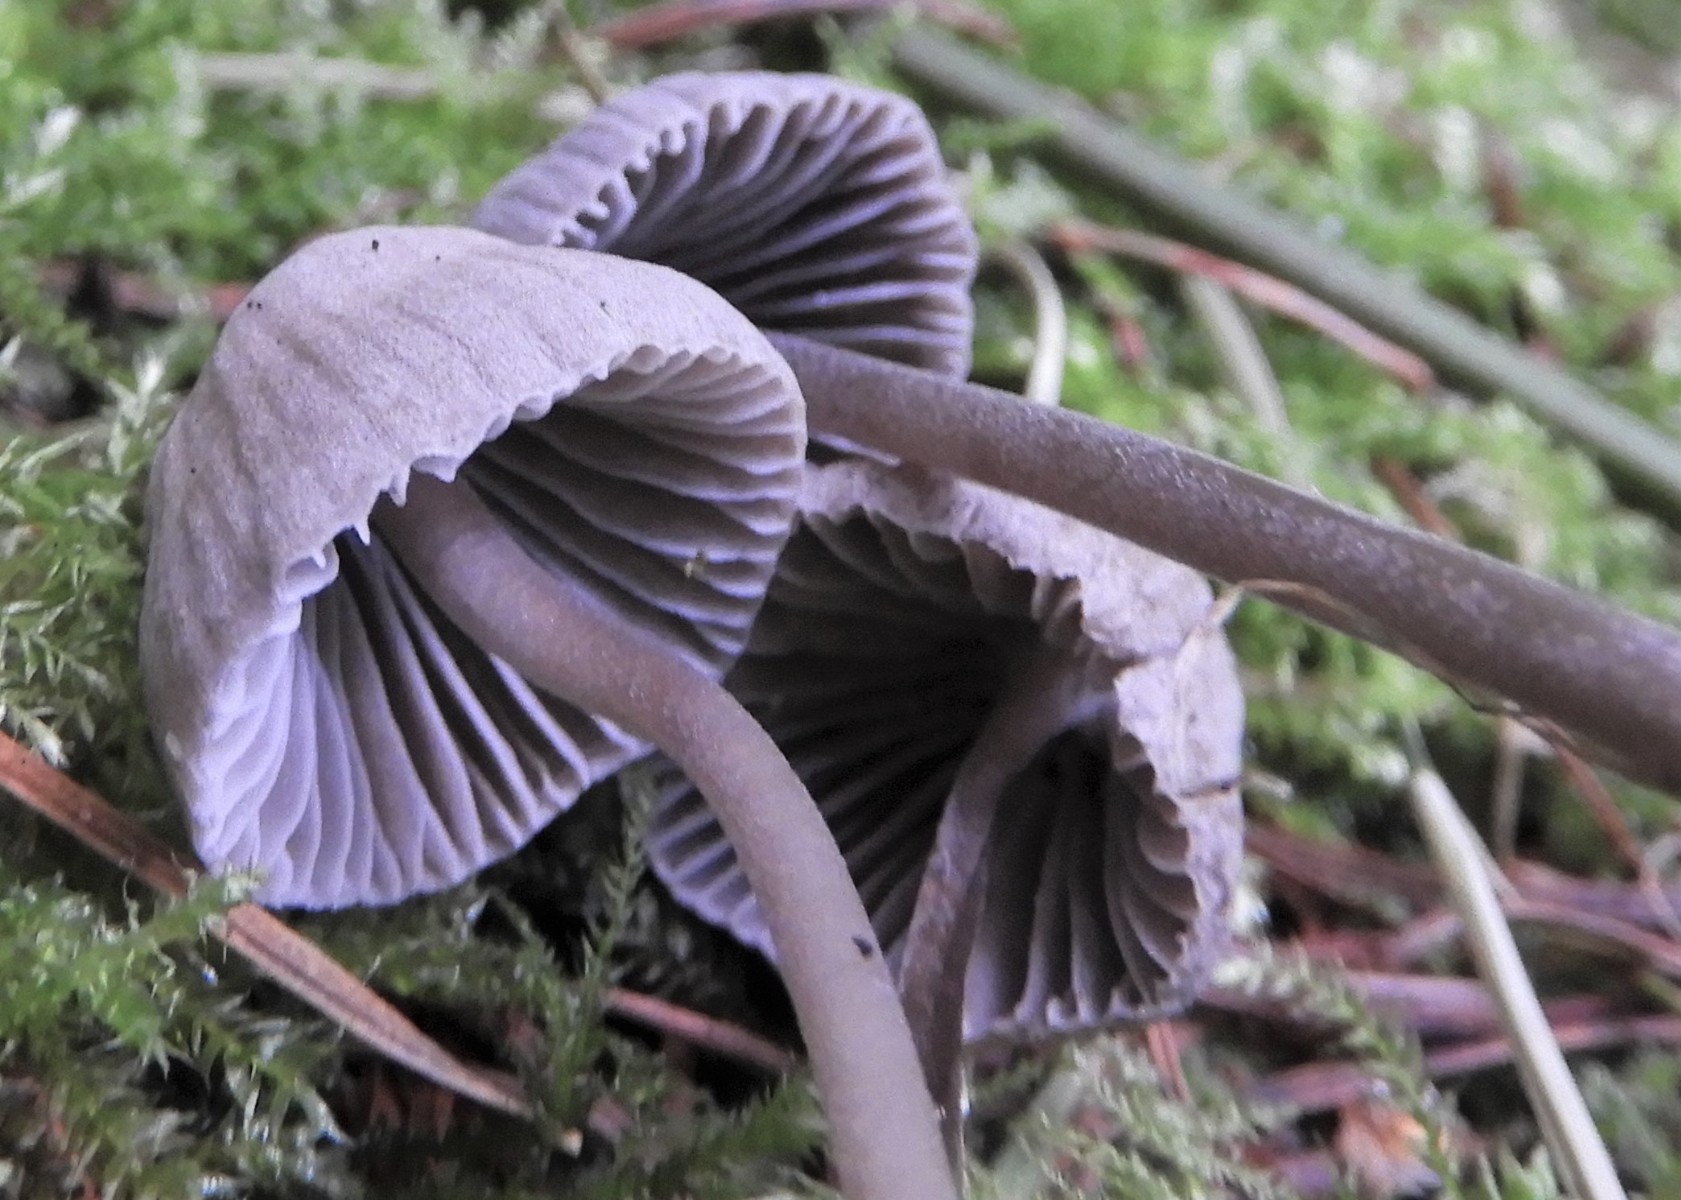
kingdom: Fungi
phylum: Basidiomycota
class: Agaricomycetes
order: Agaricales
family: Mycenaceae
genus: Mycena
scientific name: Mycena aetites
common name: plæne-huesvamp
